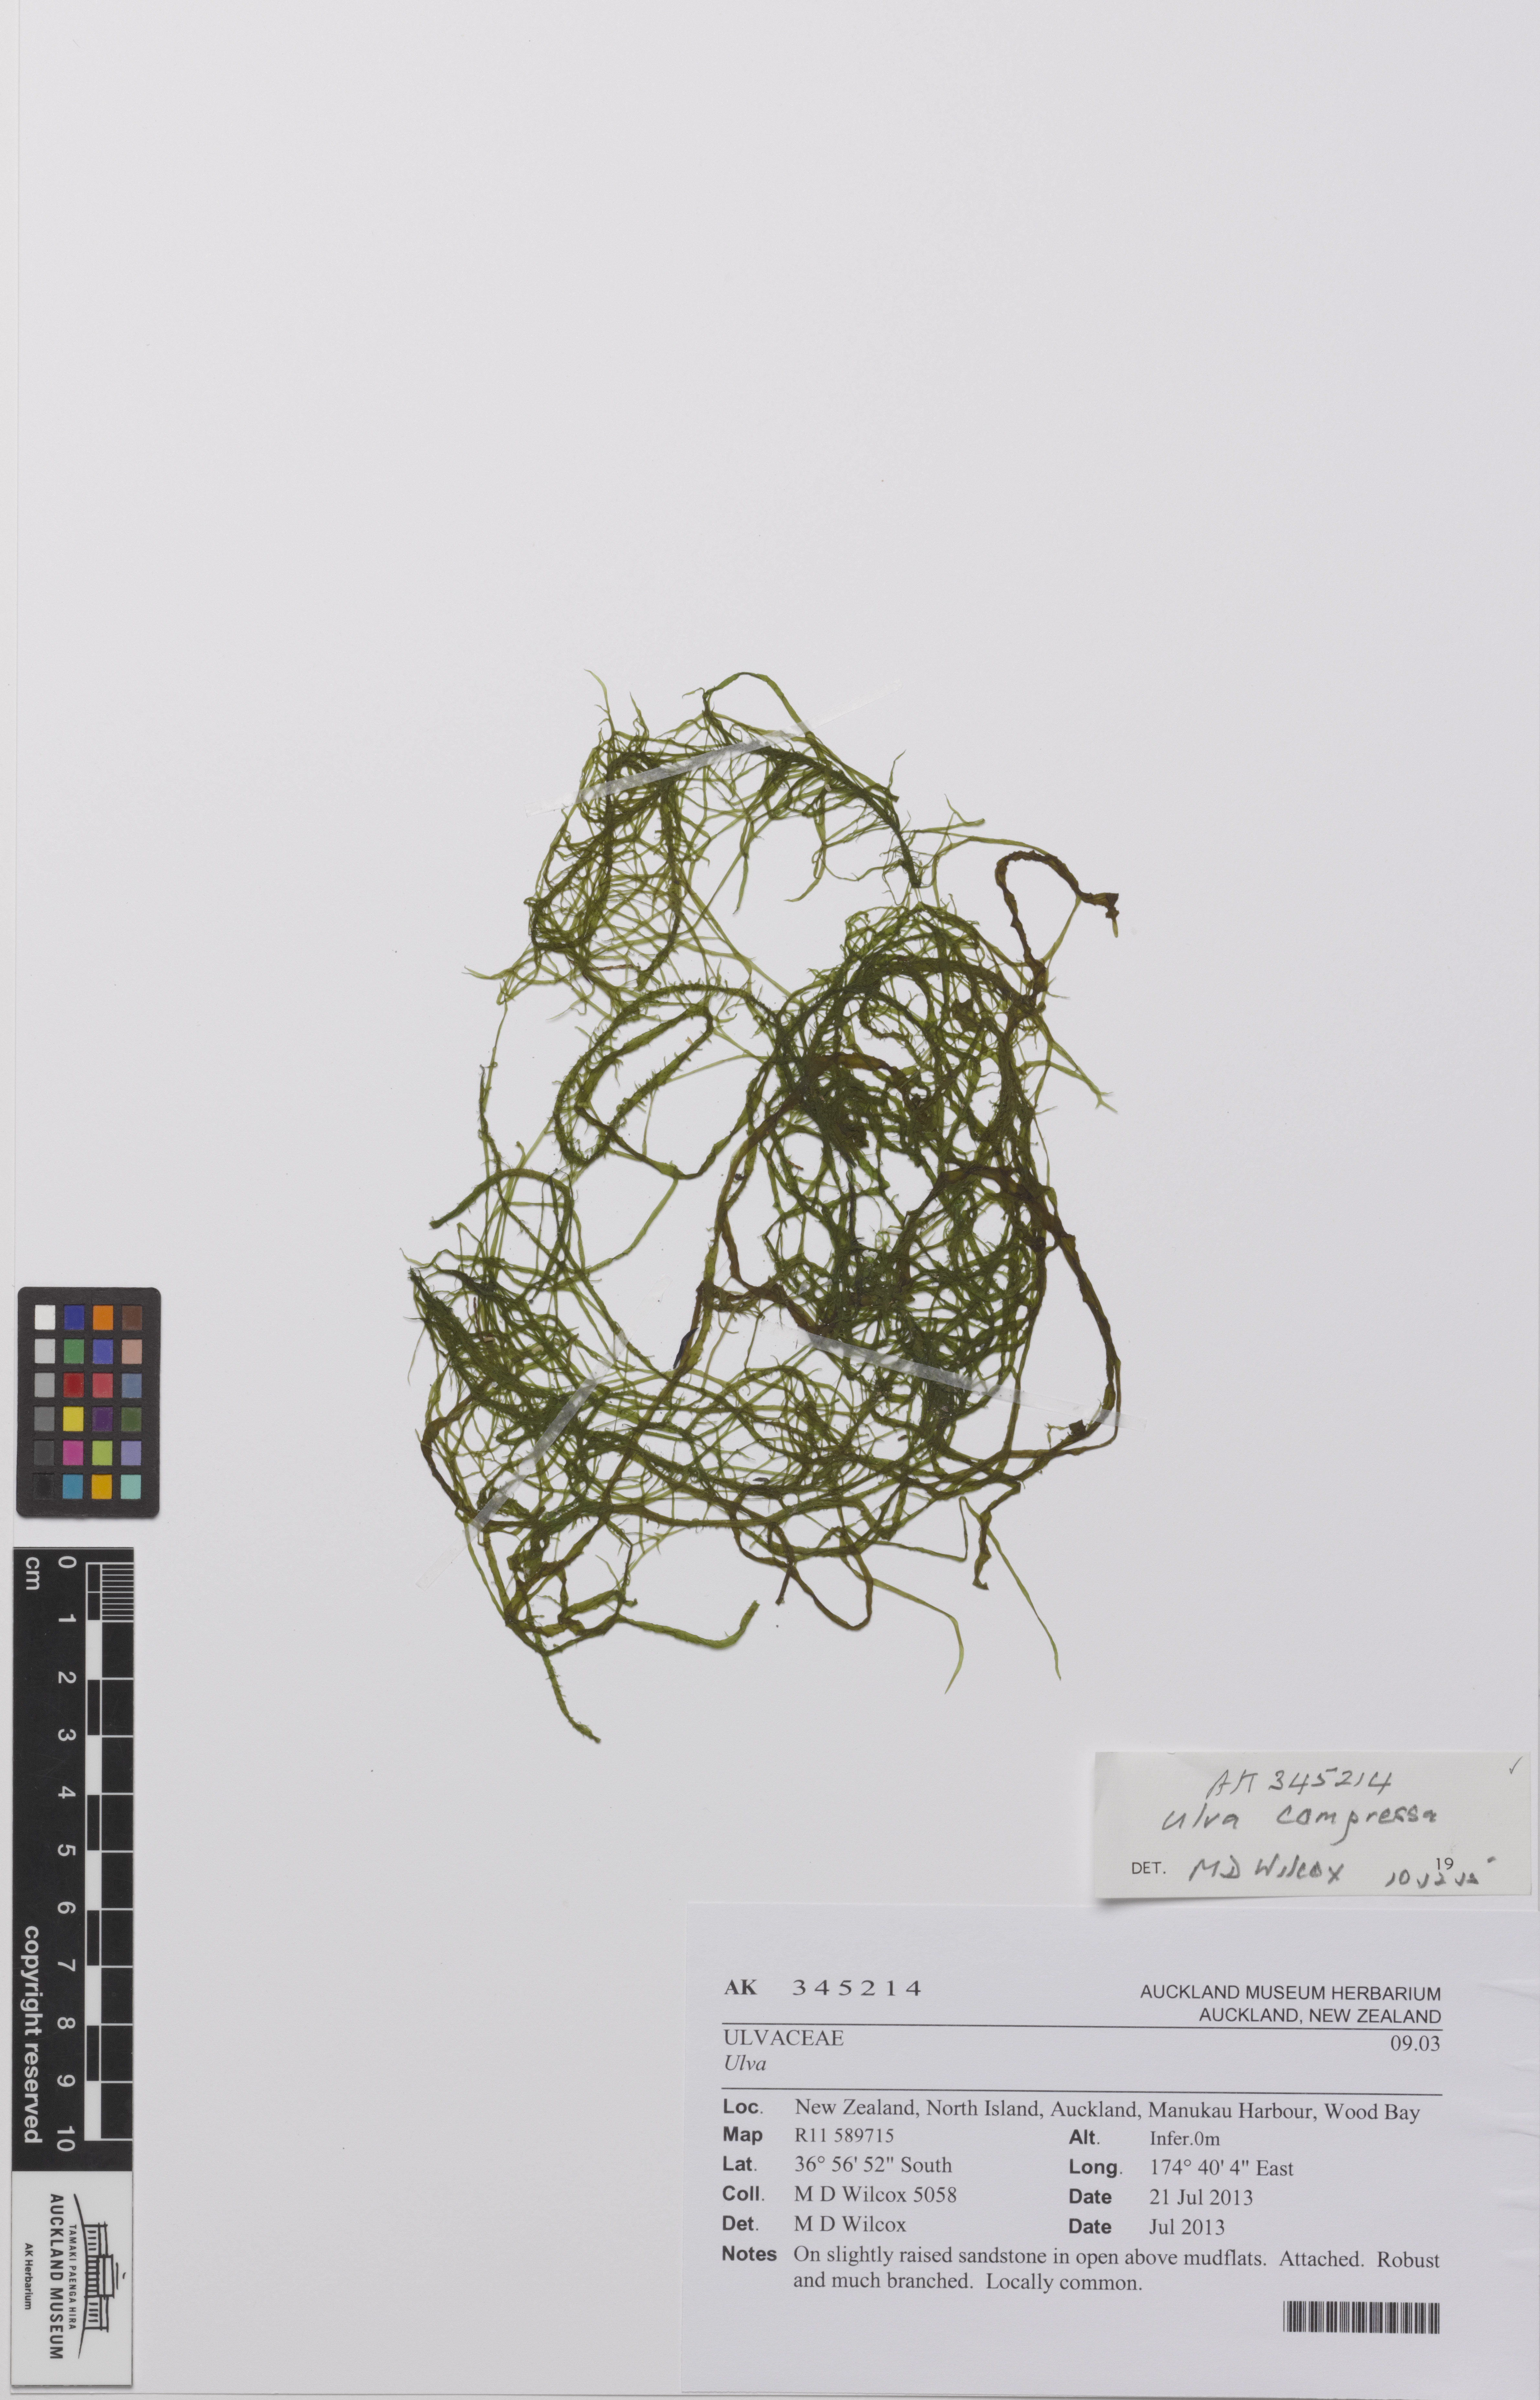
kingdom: Plantae
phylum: Chlorophyta
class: Ulvophyceae
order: Ulvales
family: Ulvaceae
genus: Ulva
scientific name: Ulva
